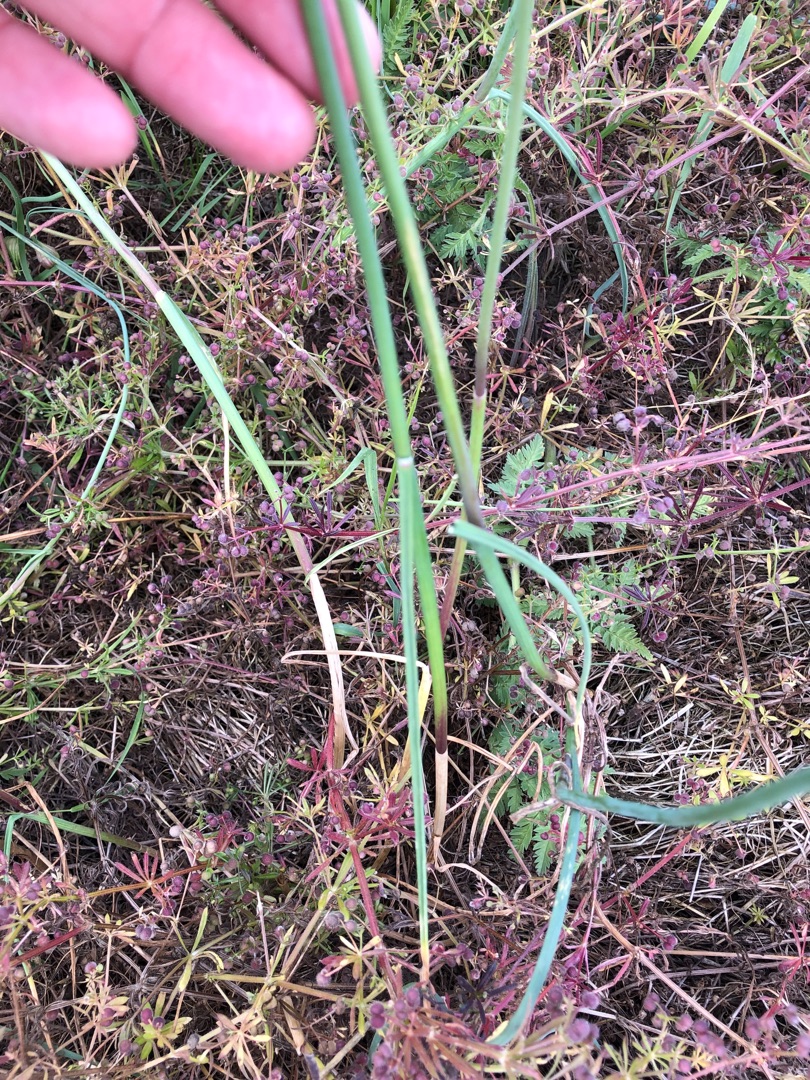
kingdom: Plantae
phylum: Tracheophyta
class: Liliopsida
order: Asparagales
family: Amaryllidaceae
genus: Allium
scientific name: Allium oleraceum
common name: Vild løg
